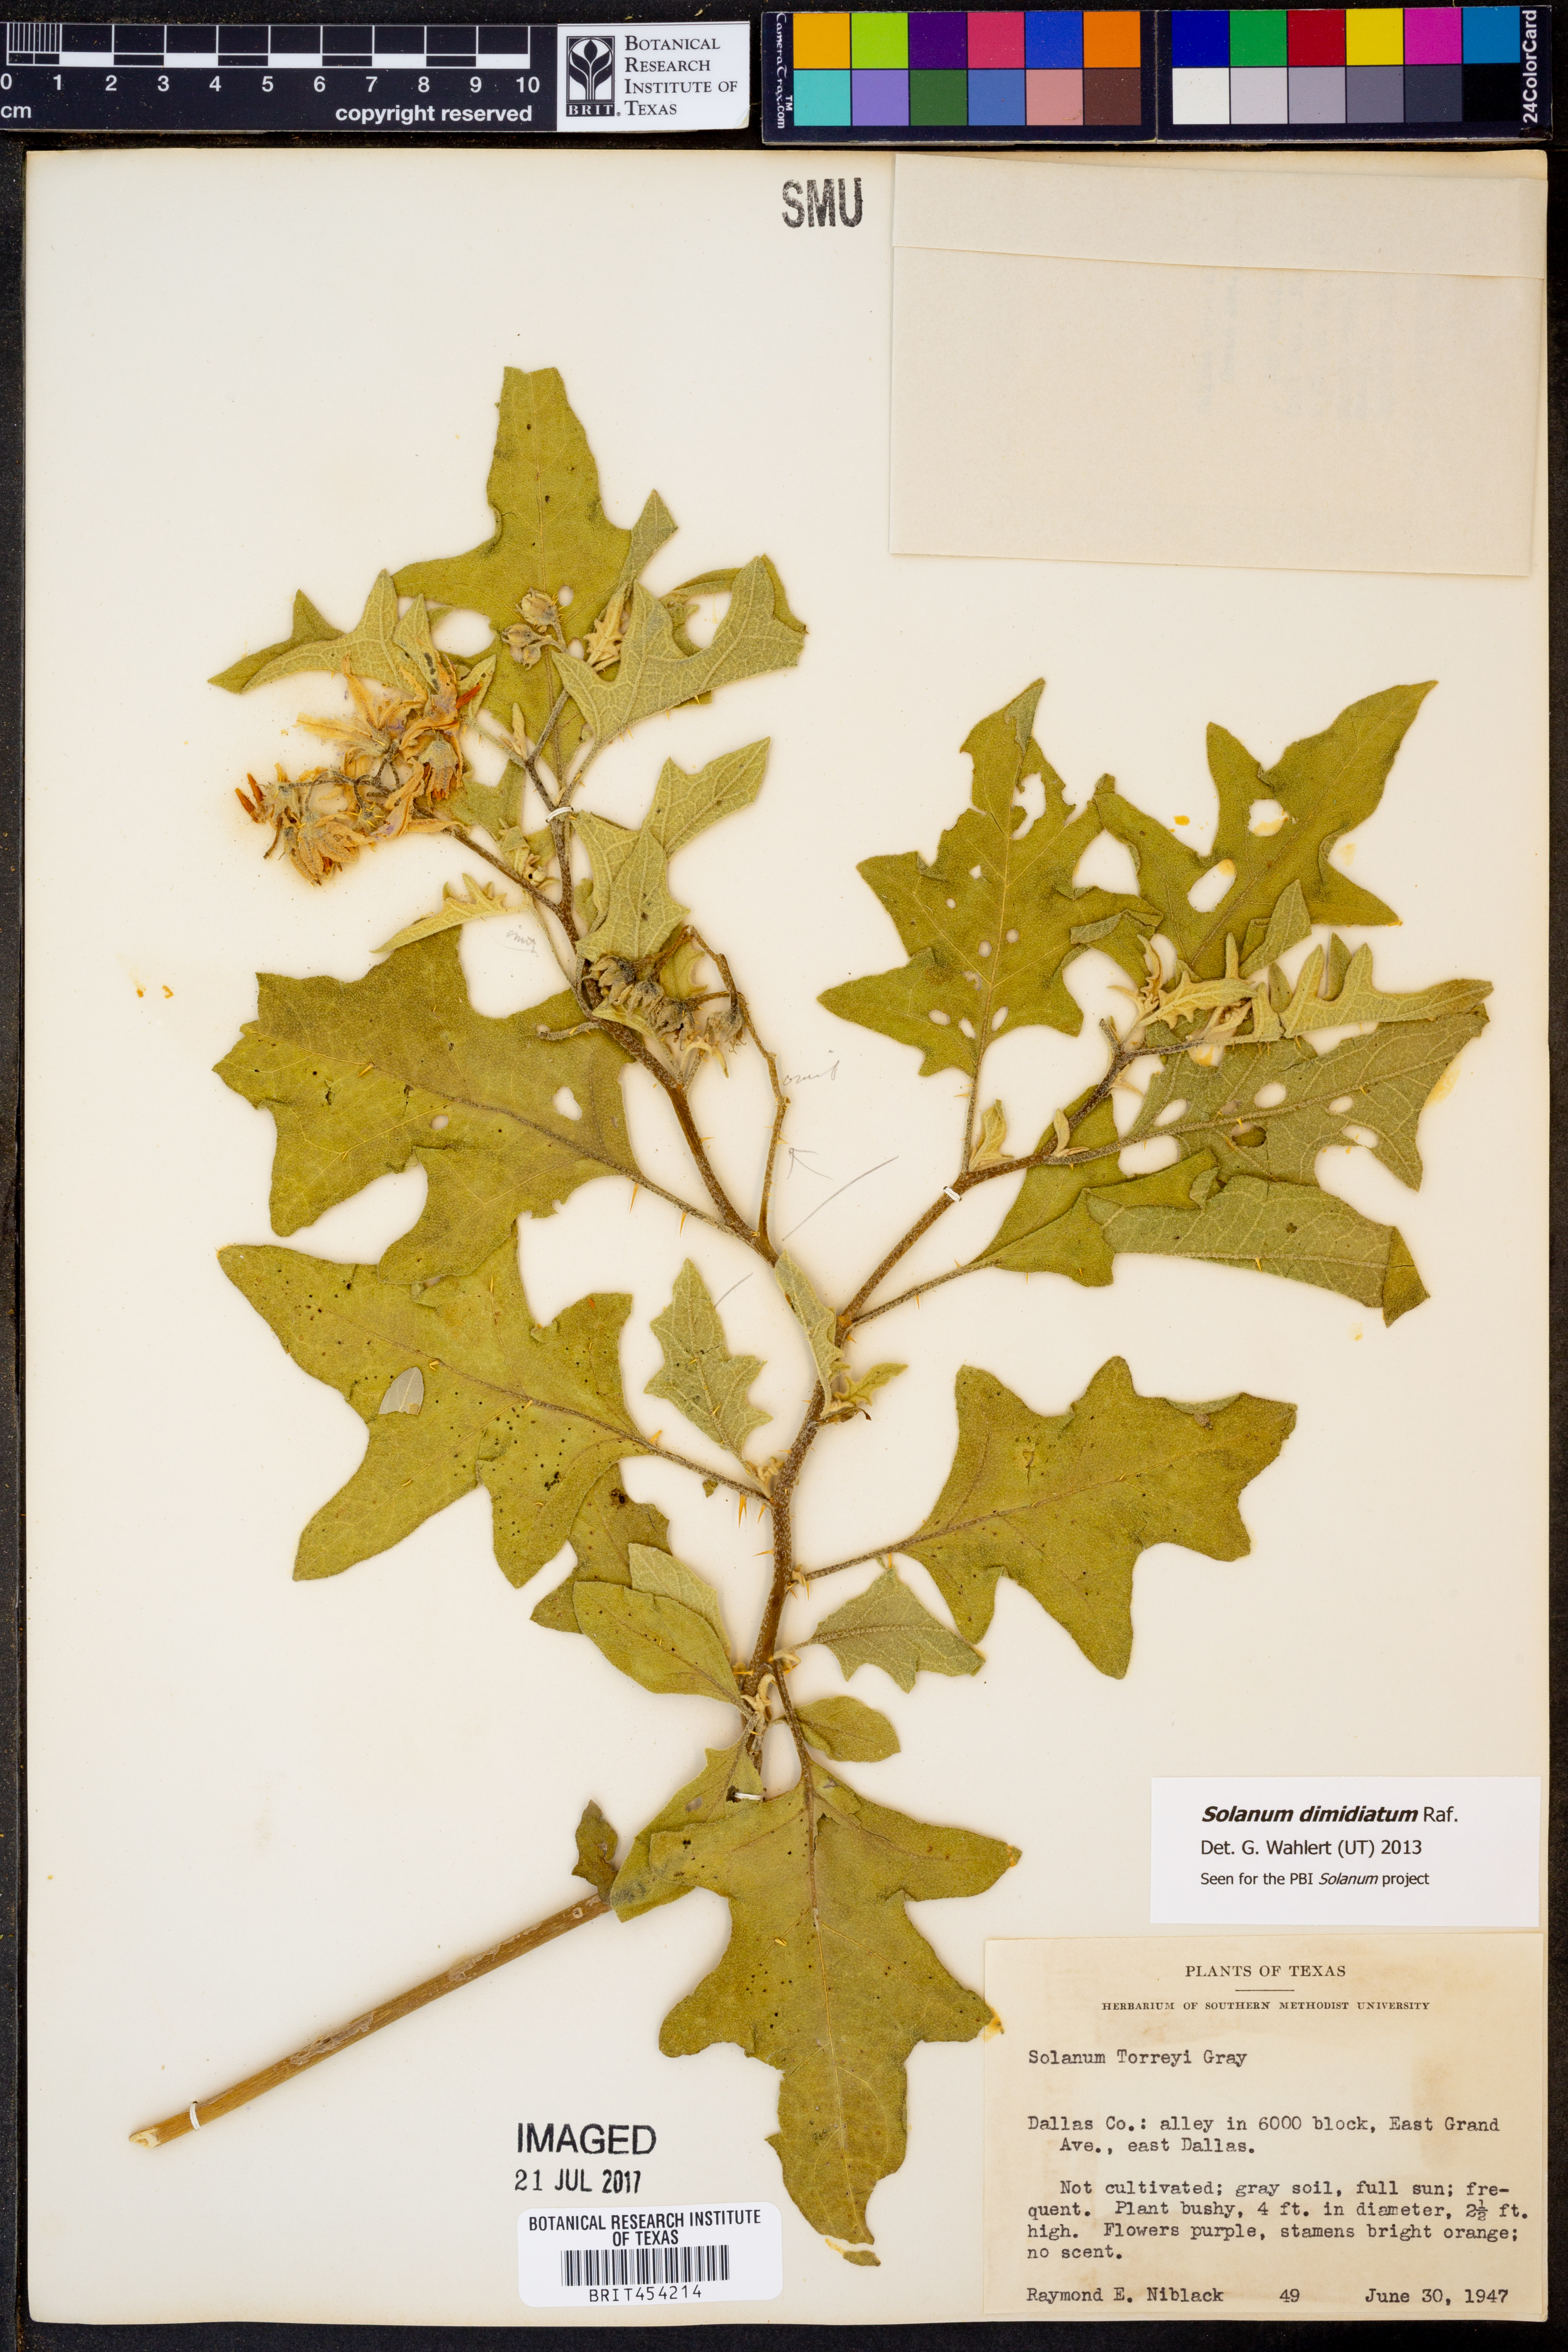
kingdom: Plantae
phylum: Tracheophyta
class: Magnoliopsida
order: Solanales
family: Solanaceae
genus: Solanum
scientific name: Solanum dimidiatum
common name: Carolina horse-nettle
